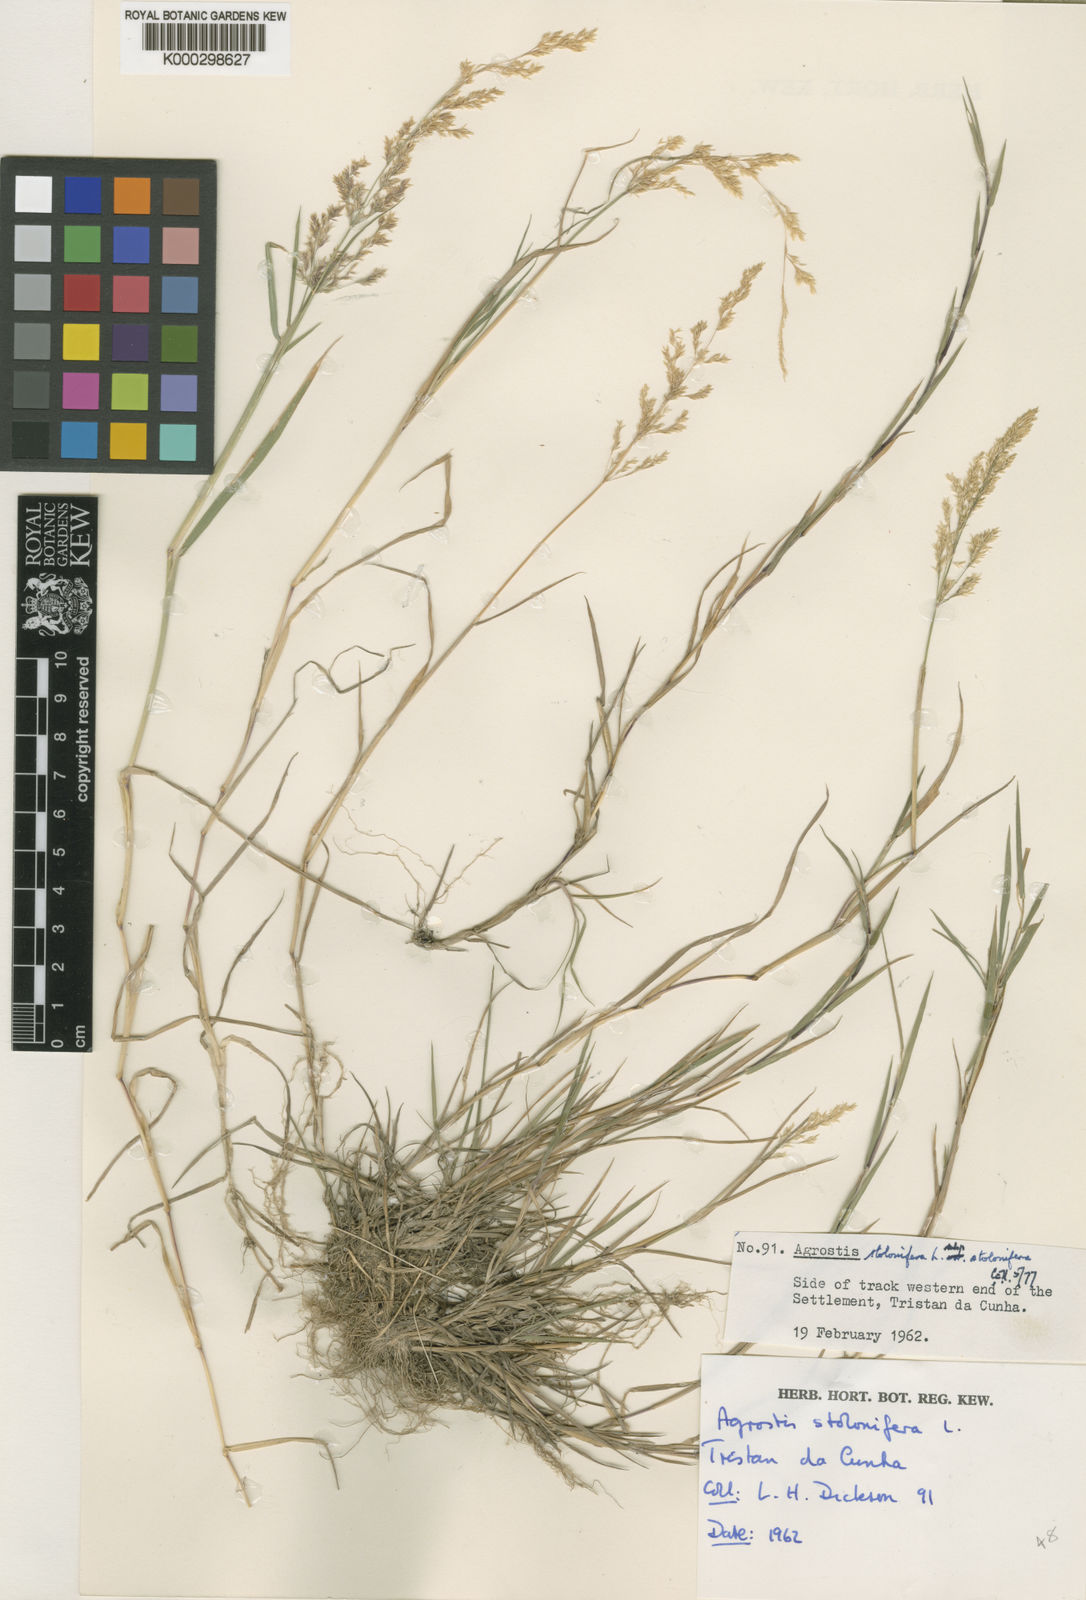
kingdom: Plantae
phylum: Tracheophyta
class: Liliopsida
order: Poales
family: Poaceae
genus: Agrostis
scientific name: Agrostis stolonifera
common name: Creeping bentgrass
